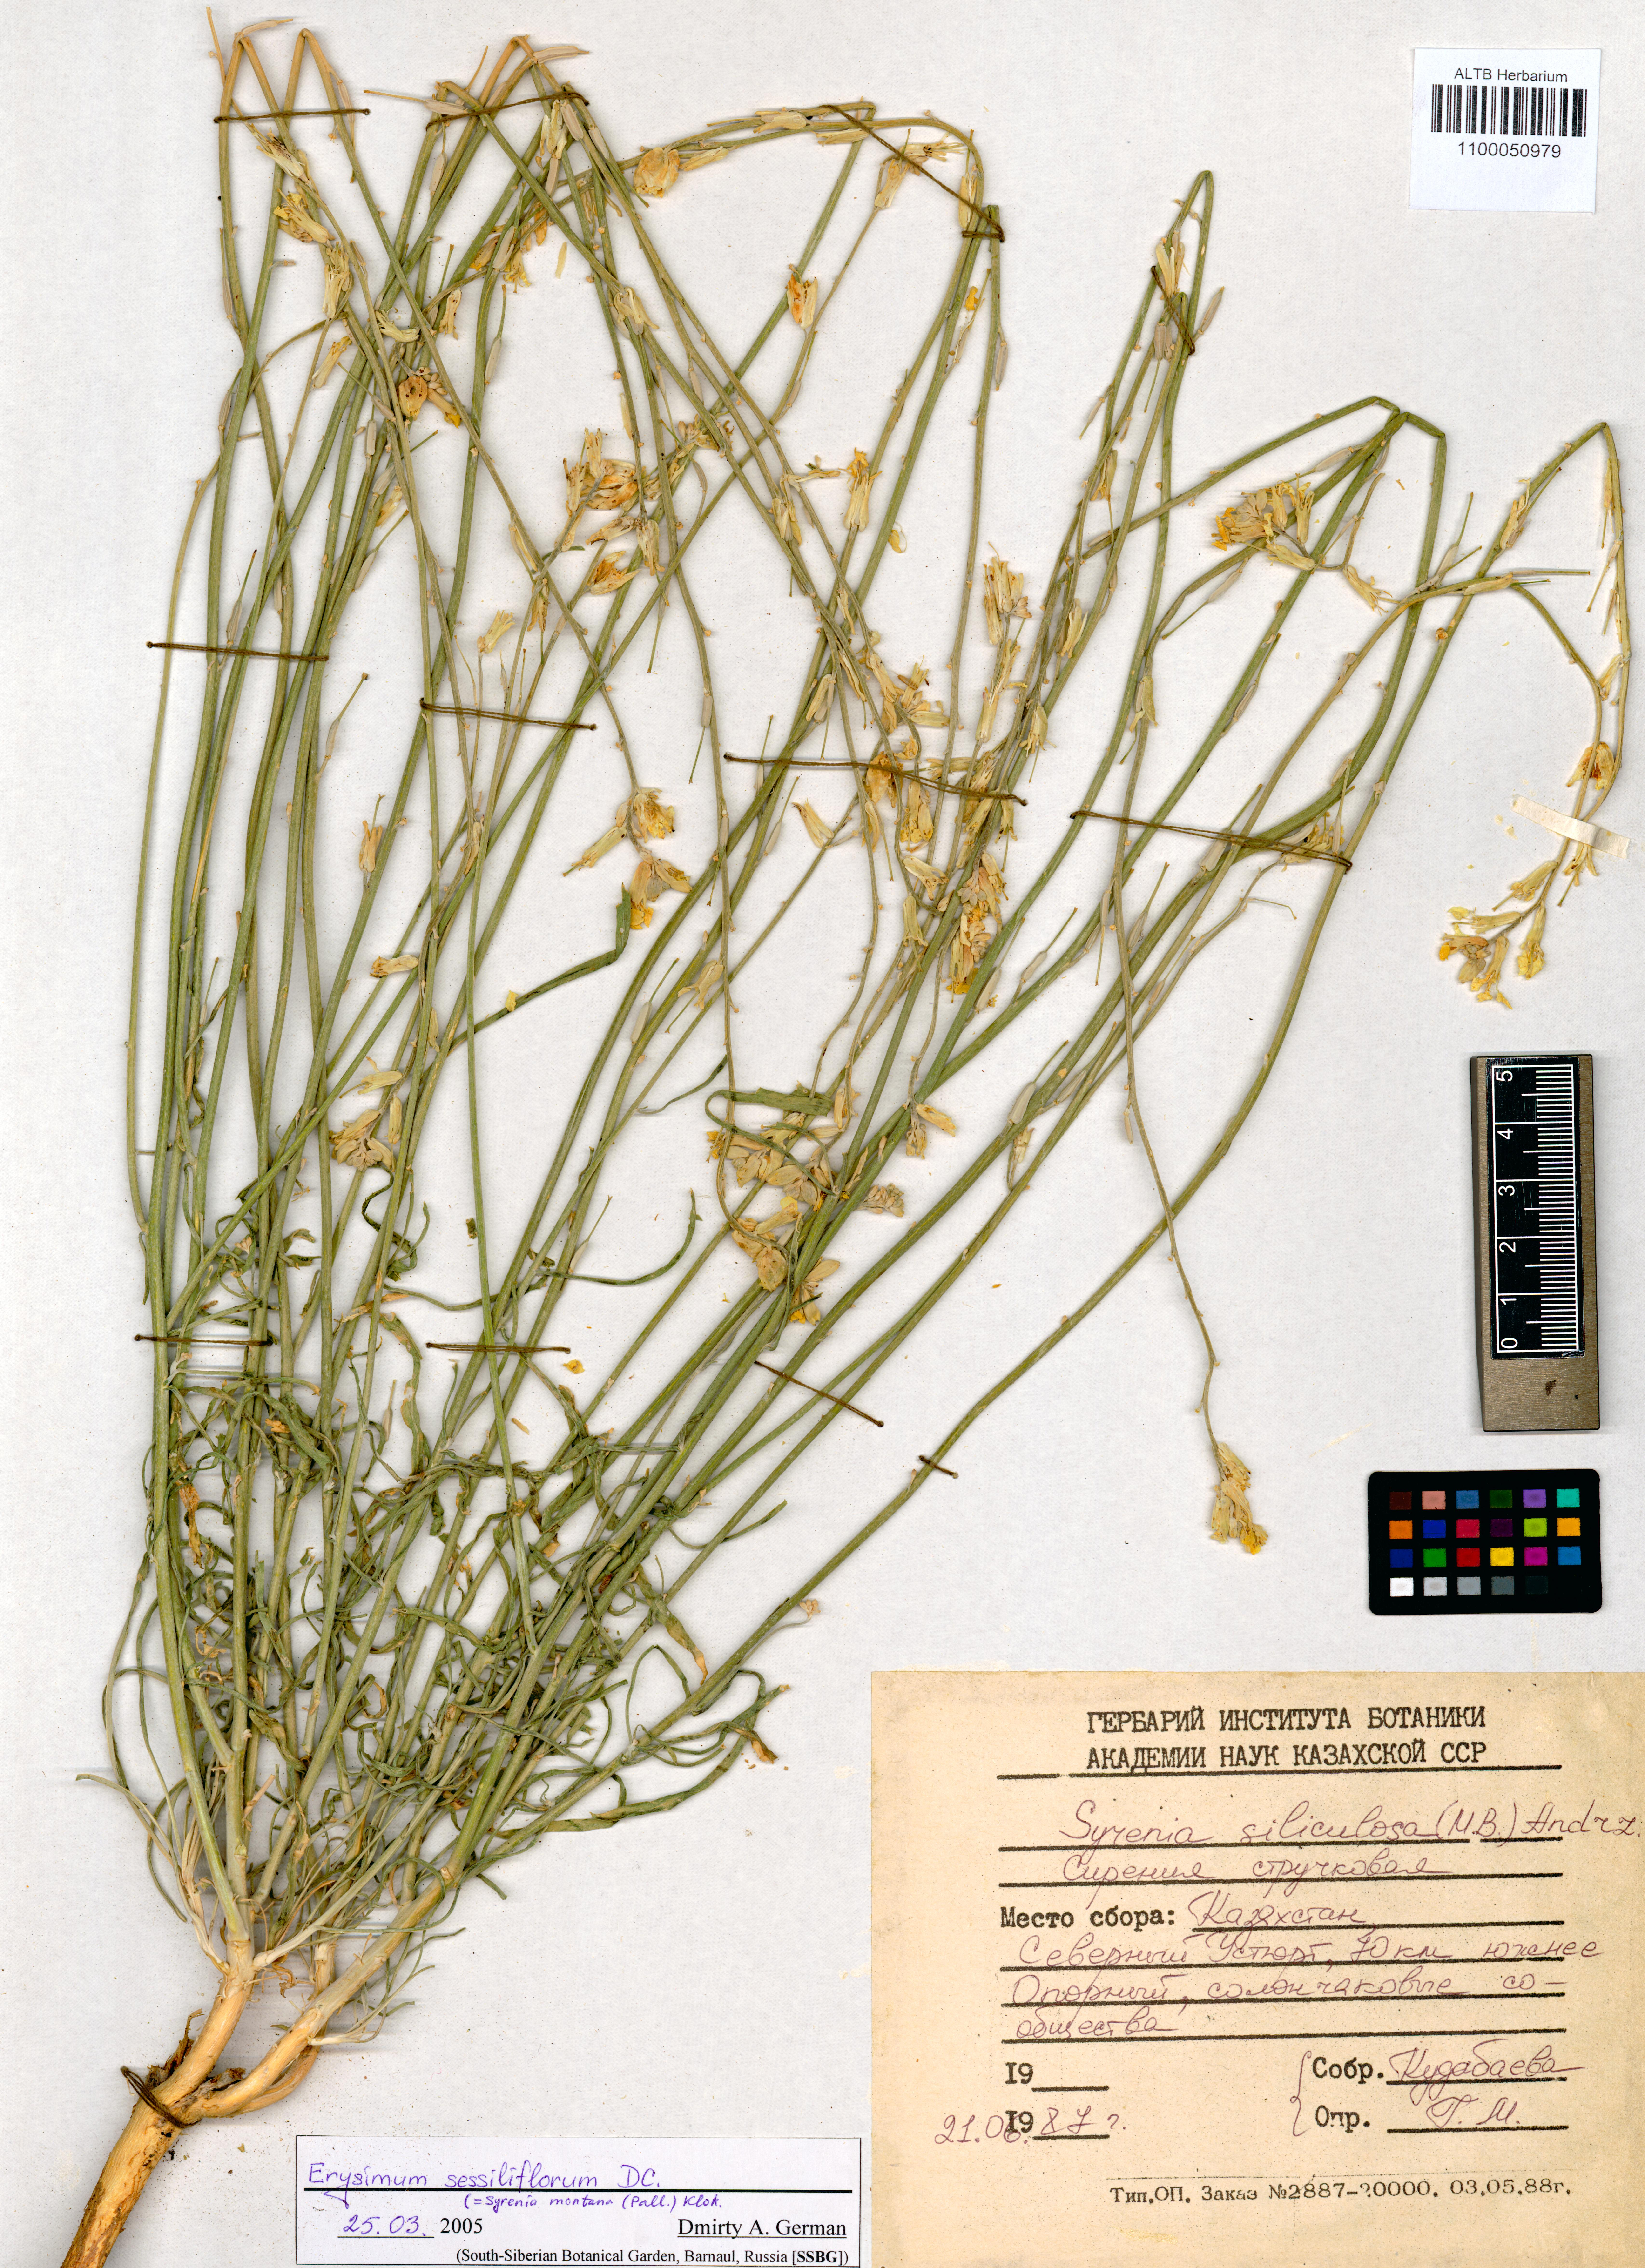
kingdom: Plantae
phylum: Tracheophyta
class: Magnoliopsida
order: Brassicales
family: Brassicaceae
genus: Erysimum
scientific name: Erysimum siliculosum
